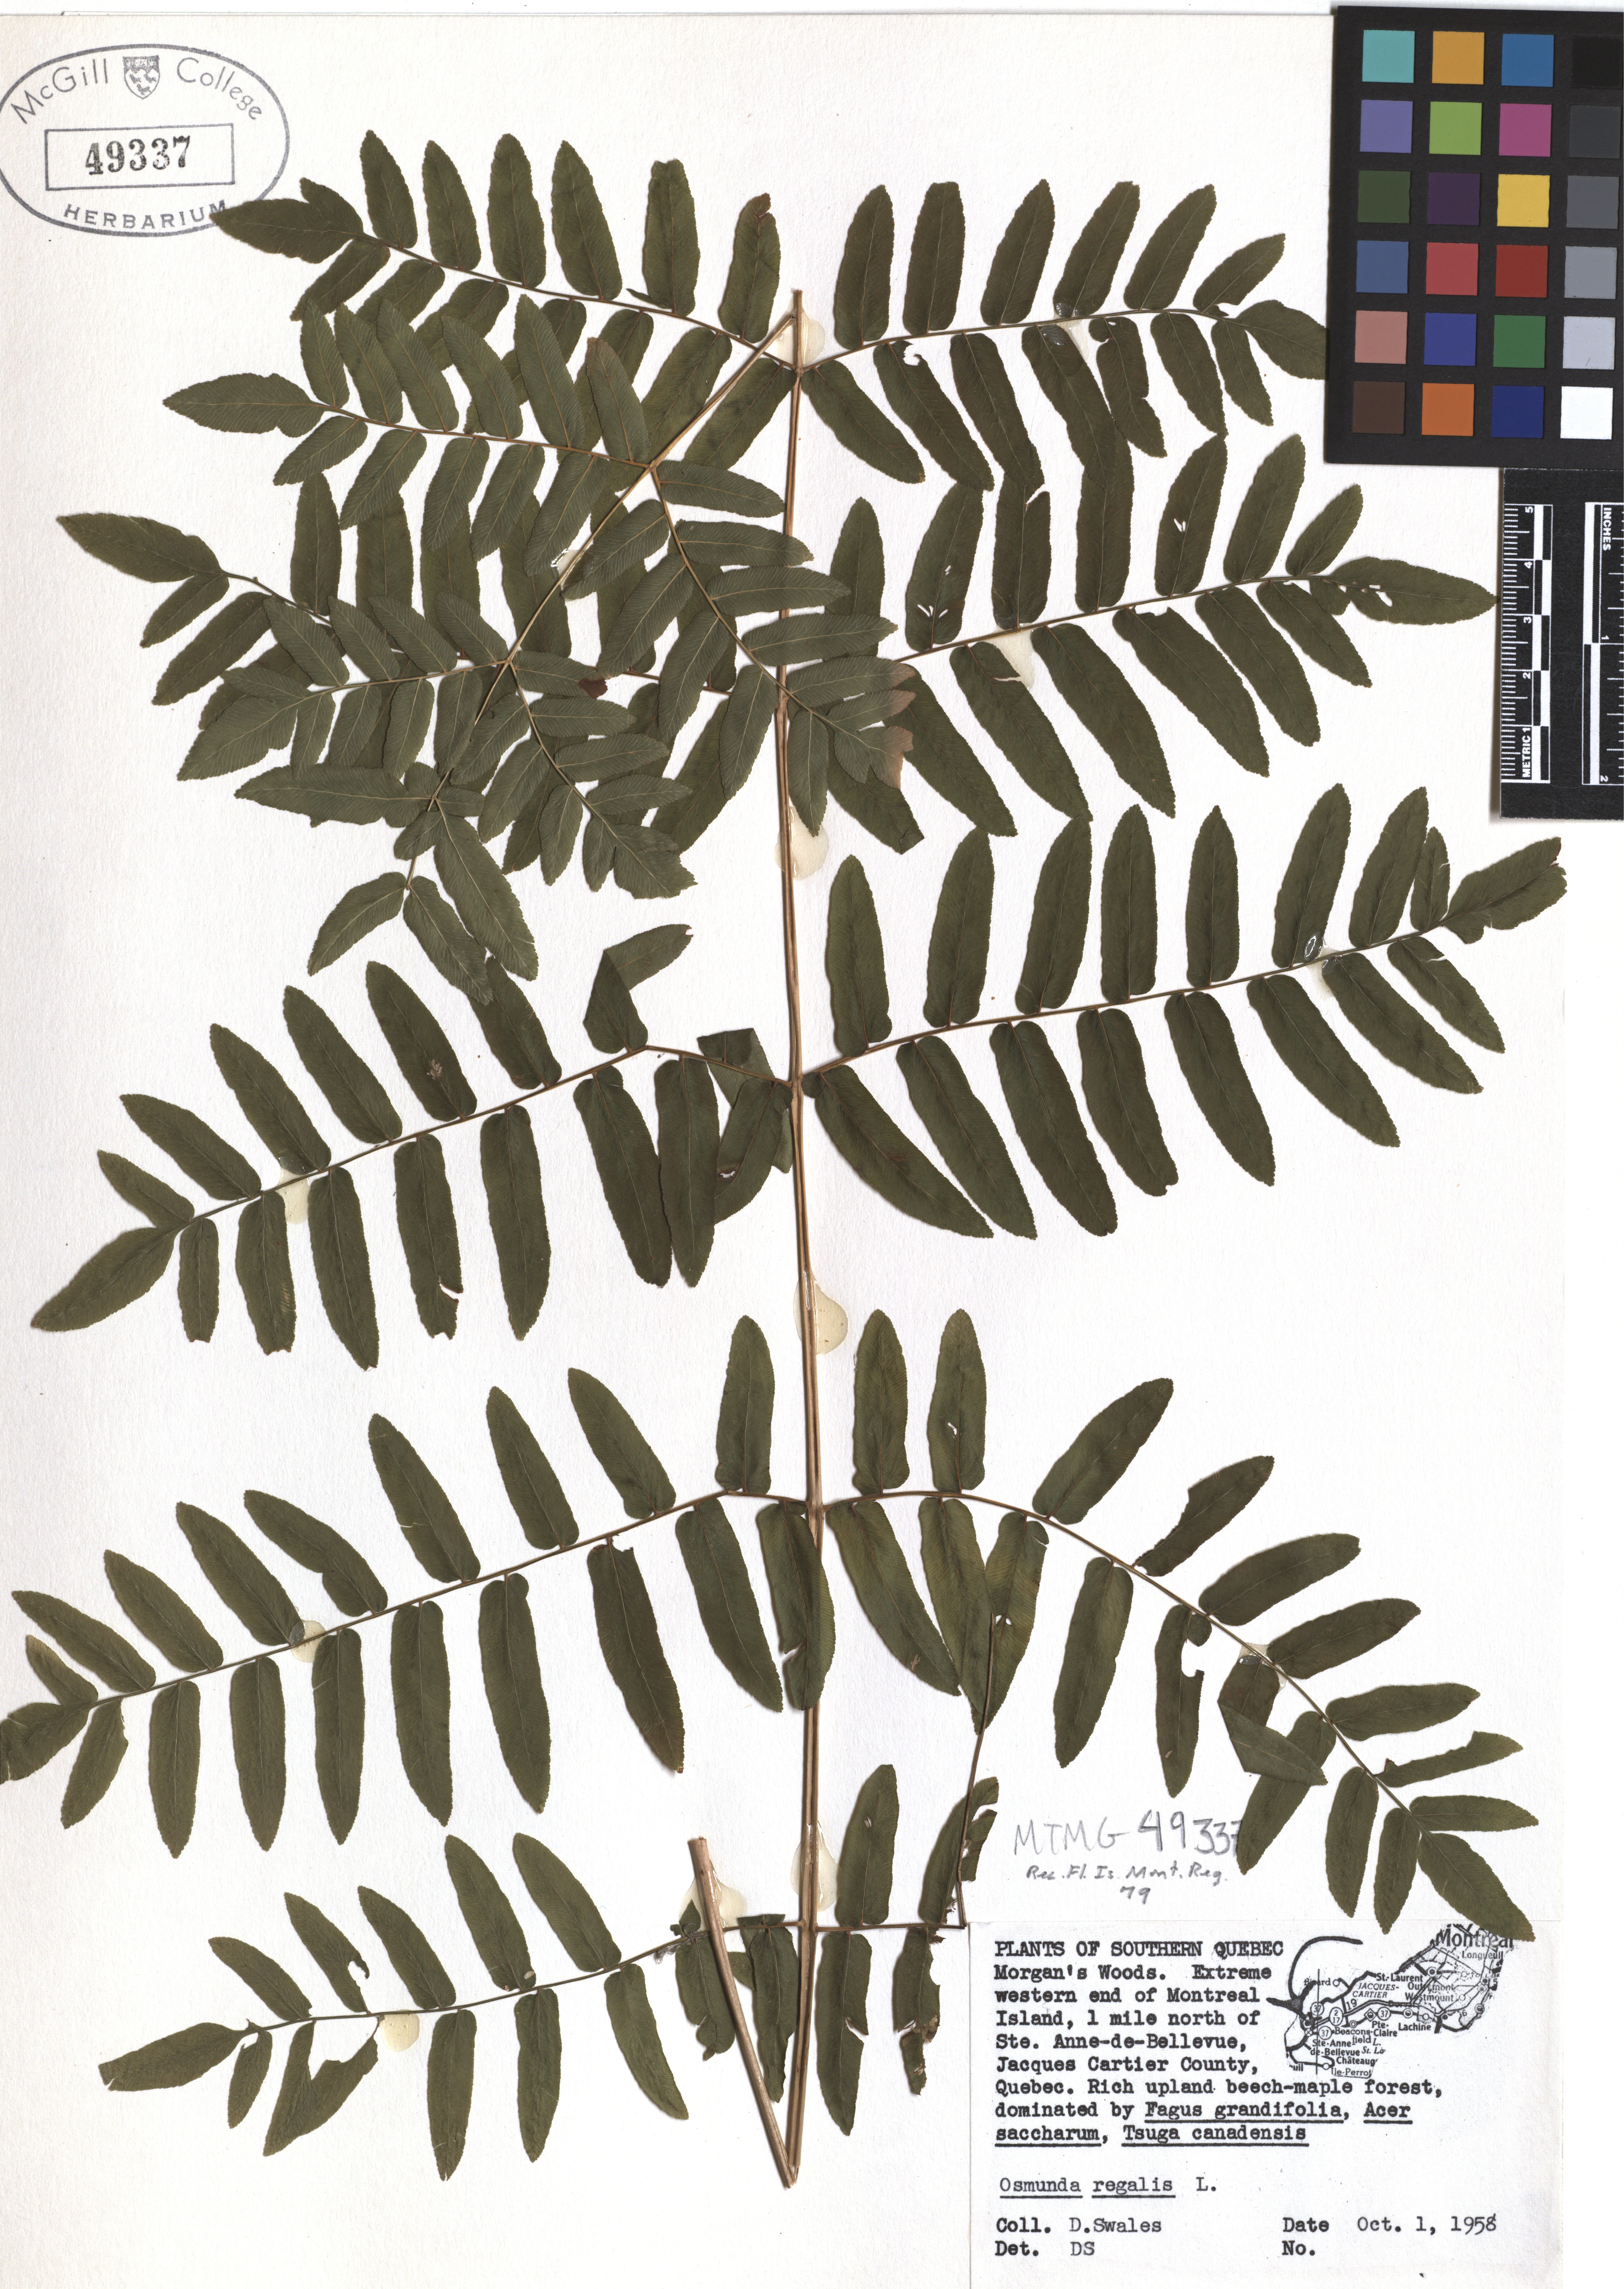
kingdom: Plantae
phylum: Tracheophyta
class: Polypodiopsida
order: Osmundales
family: Osmundaceae
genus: Osmunda
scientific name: Osmunda regalis
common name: Royal fern
